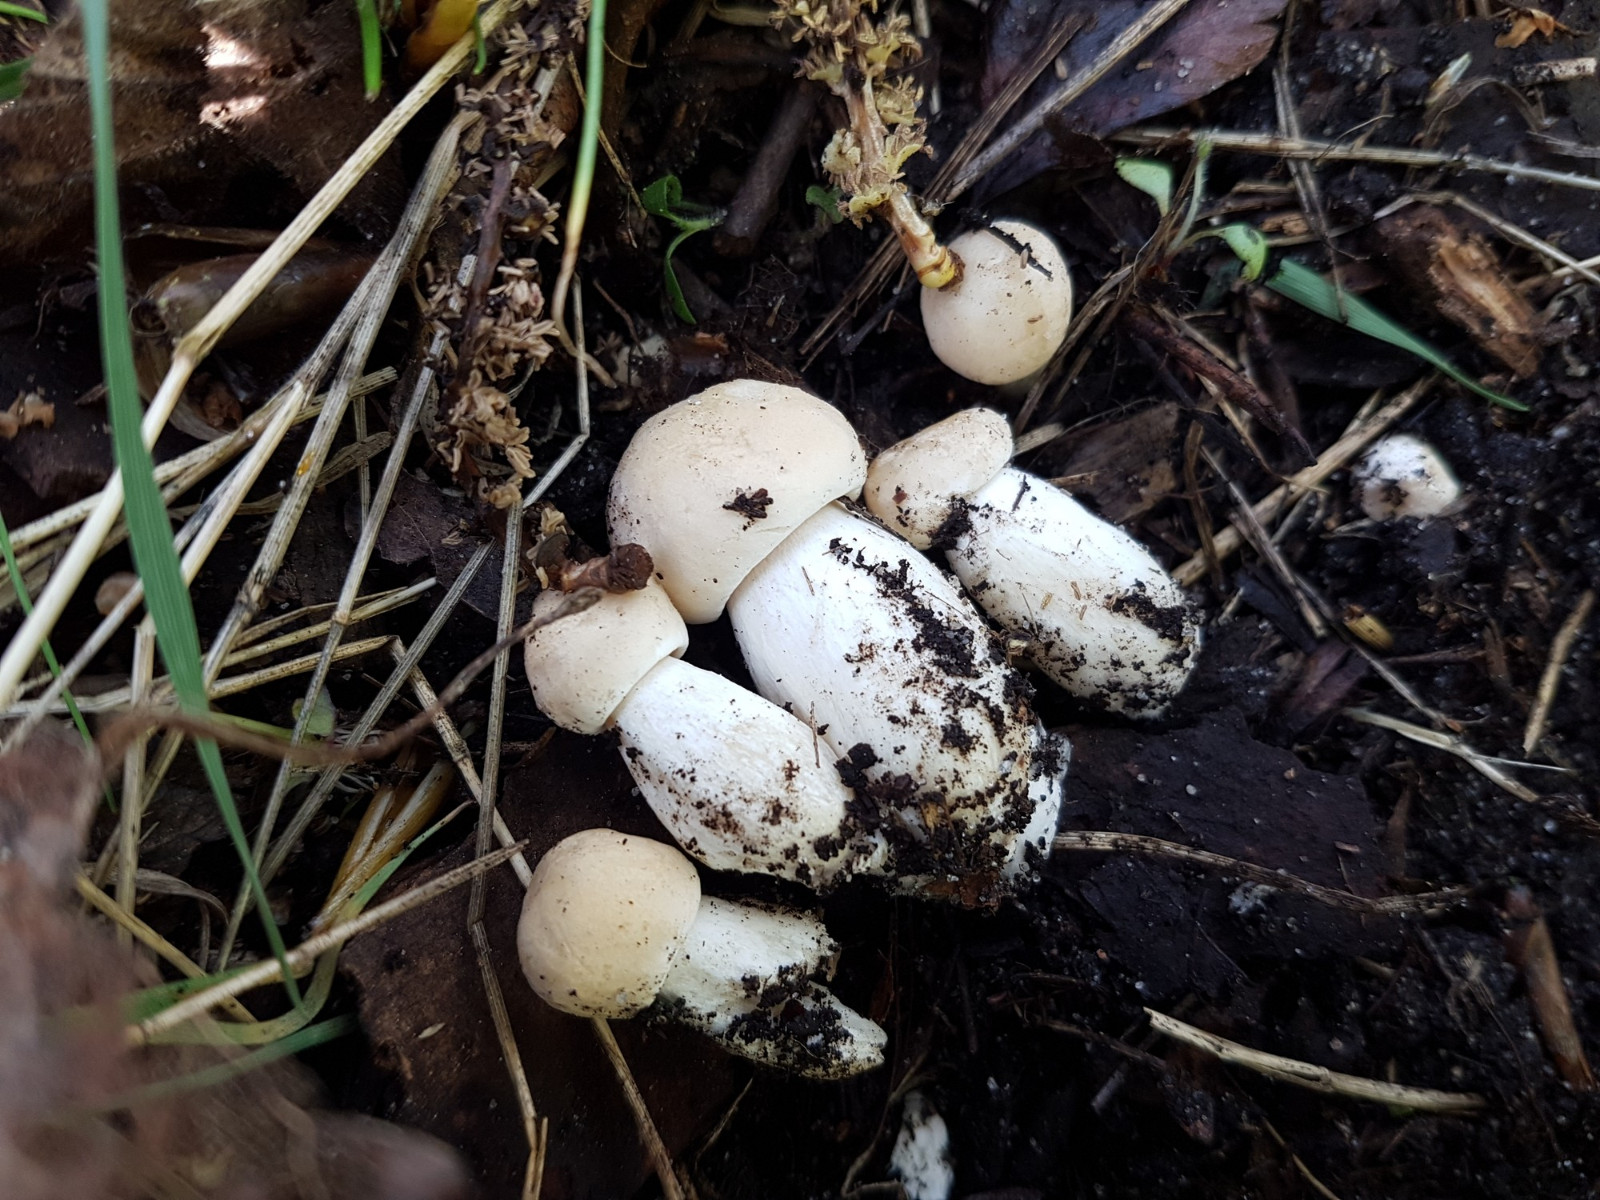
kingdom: Fungi
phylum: Basidiomycota
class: Agaricomycetes
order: Agaricales
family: Lyophyllaceae
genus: Calocybe
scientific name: Calocybe gambosa
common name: vårmusseron
